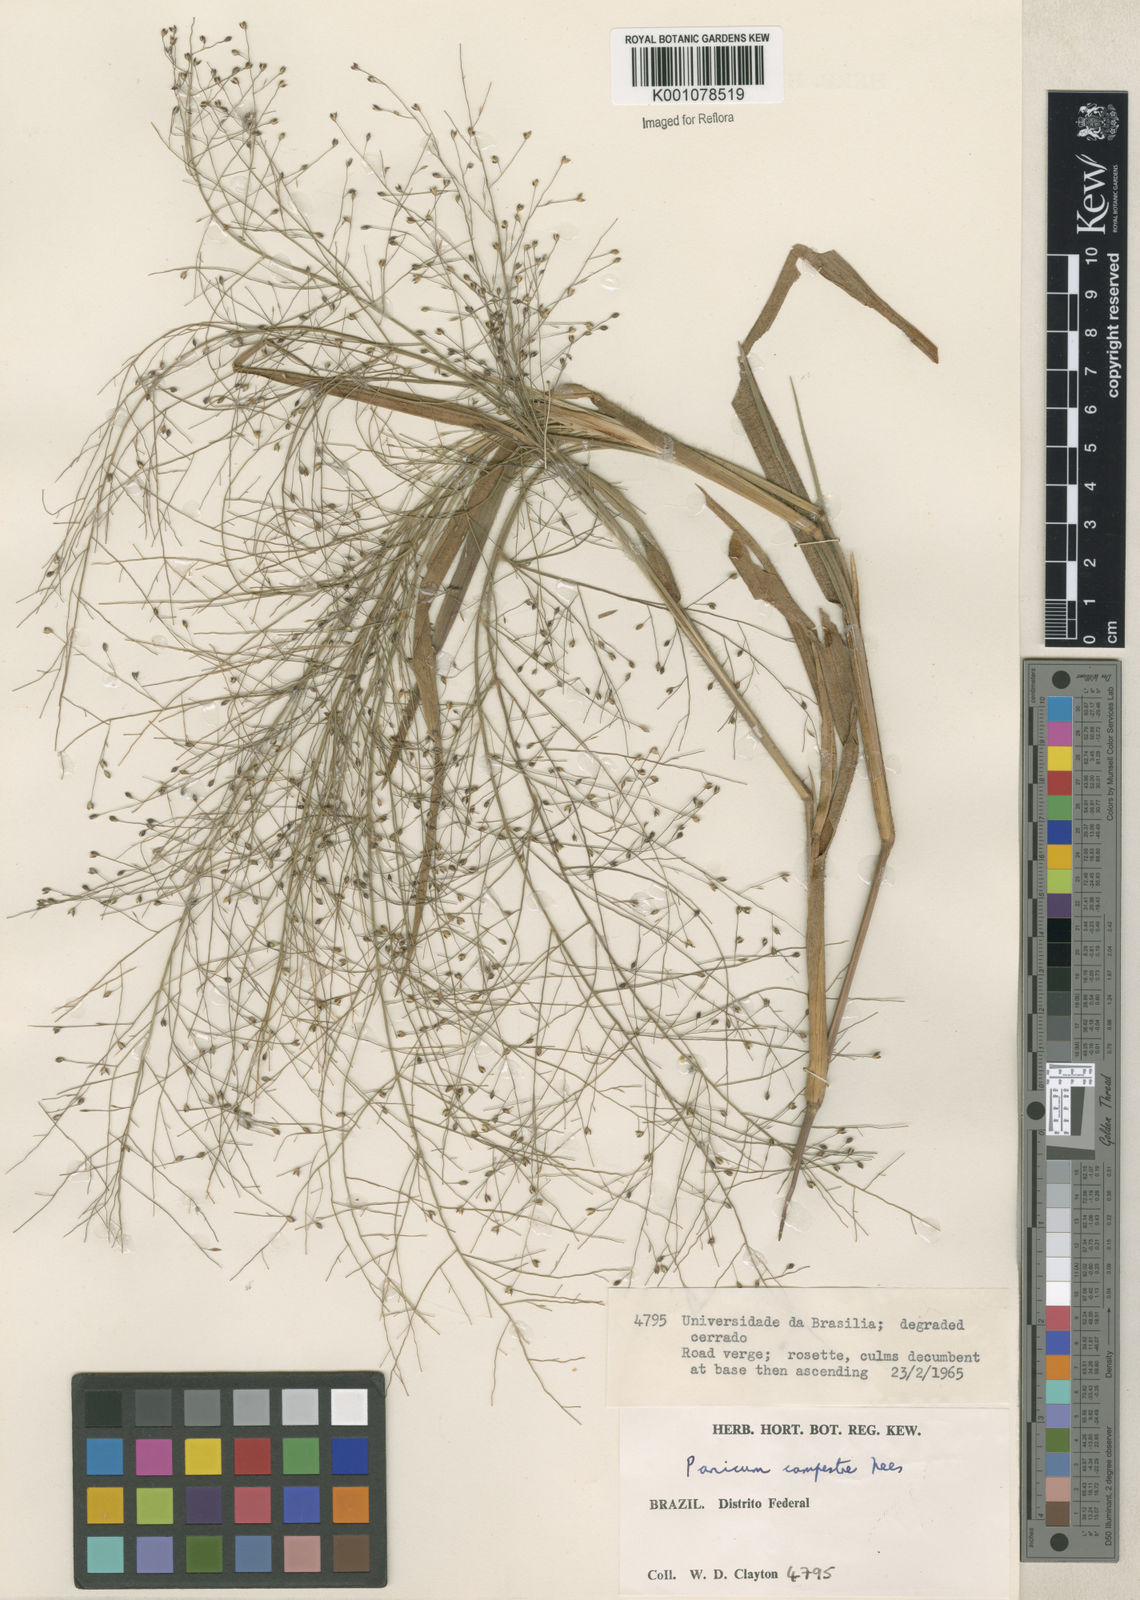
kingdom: Plantae
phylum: Tracheophyta
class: Liliopsida
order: Poales
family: Poaceae
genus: Panicum
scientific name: Panicum campestre
